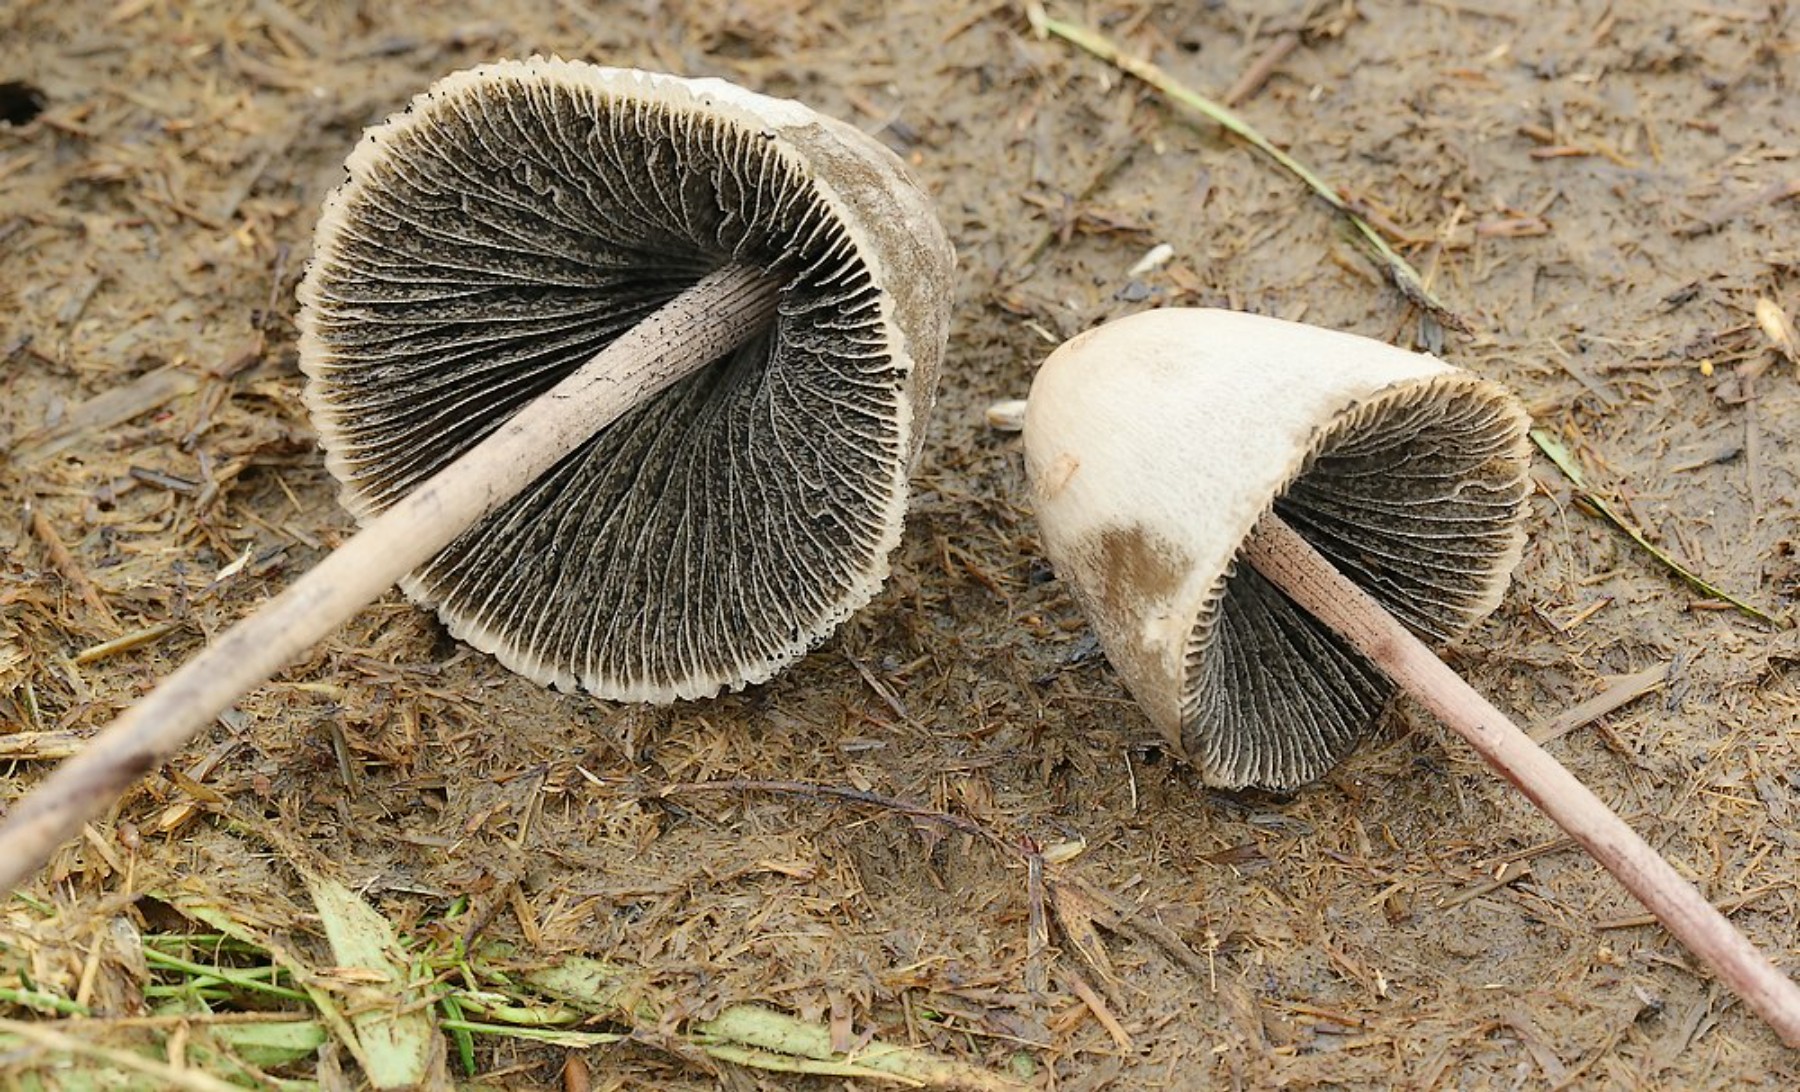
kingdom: Fungi
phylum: Basidiomycota
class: Agaricomycetes
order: Agaricales
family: Bolbitiaceae
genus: Panaeolus
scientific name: Panaeolus papilionaceus
